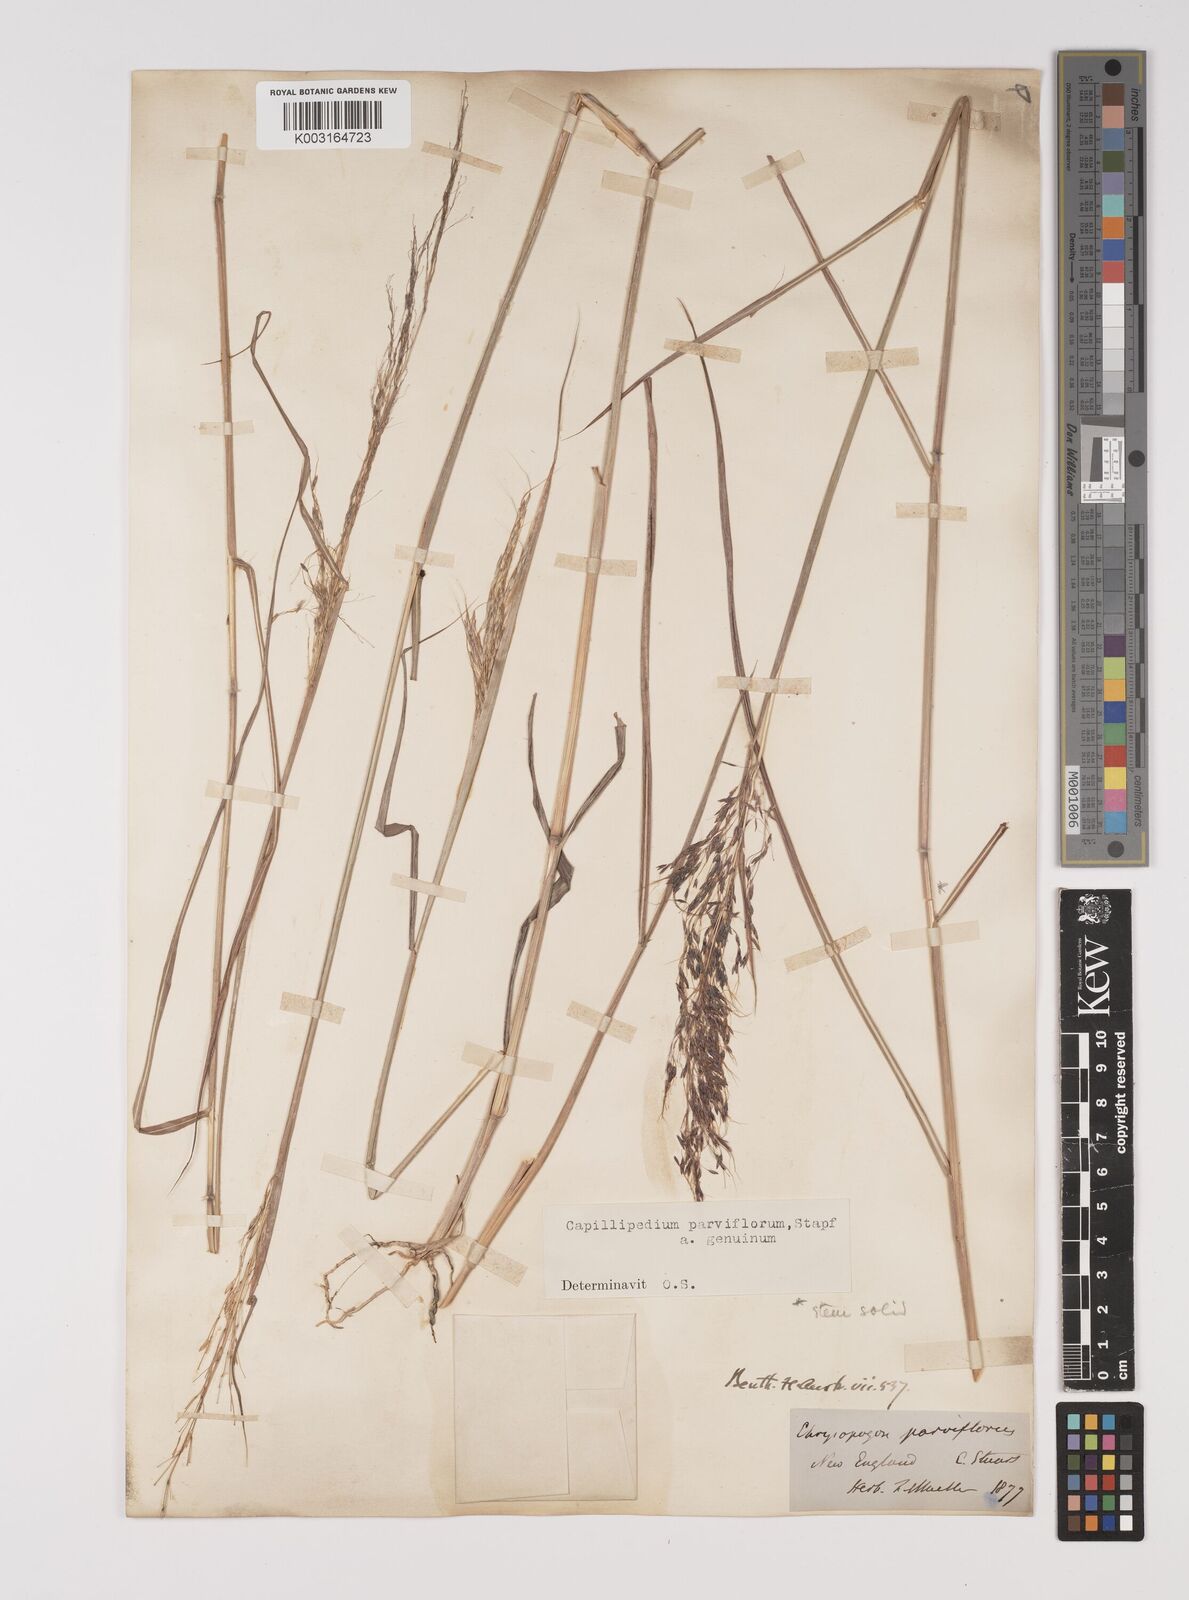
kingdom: Plantae
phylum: Tracheophyta
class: Liliopsida
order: Poales
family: Poaceae
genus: Capillipedium
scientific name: Capillipedium parviflorum
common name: Golden-beard
